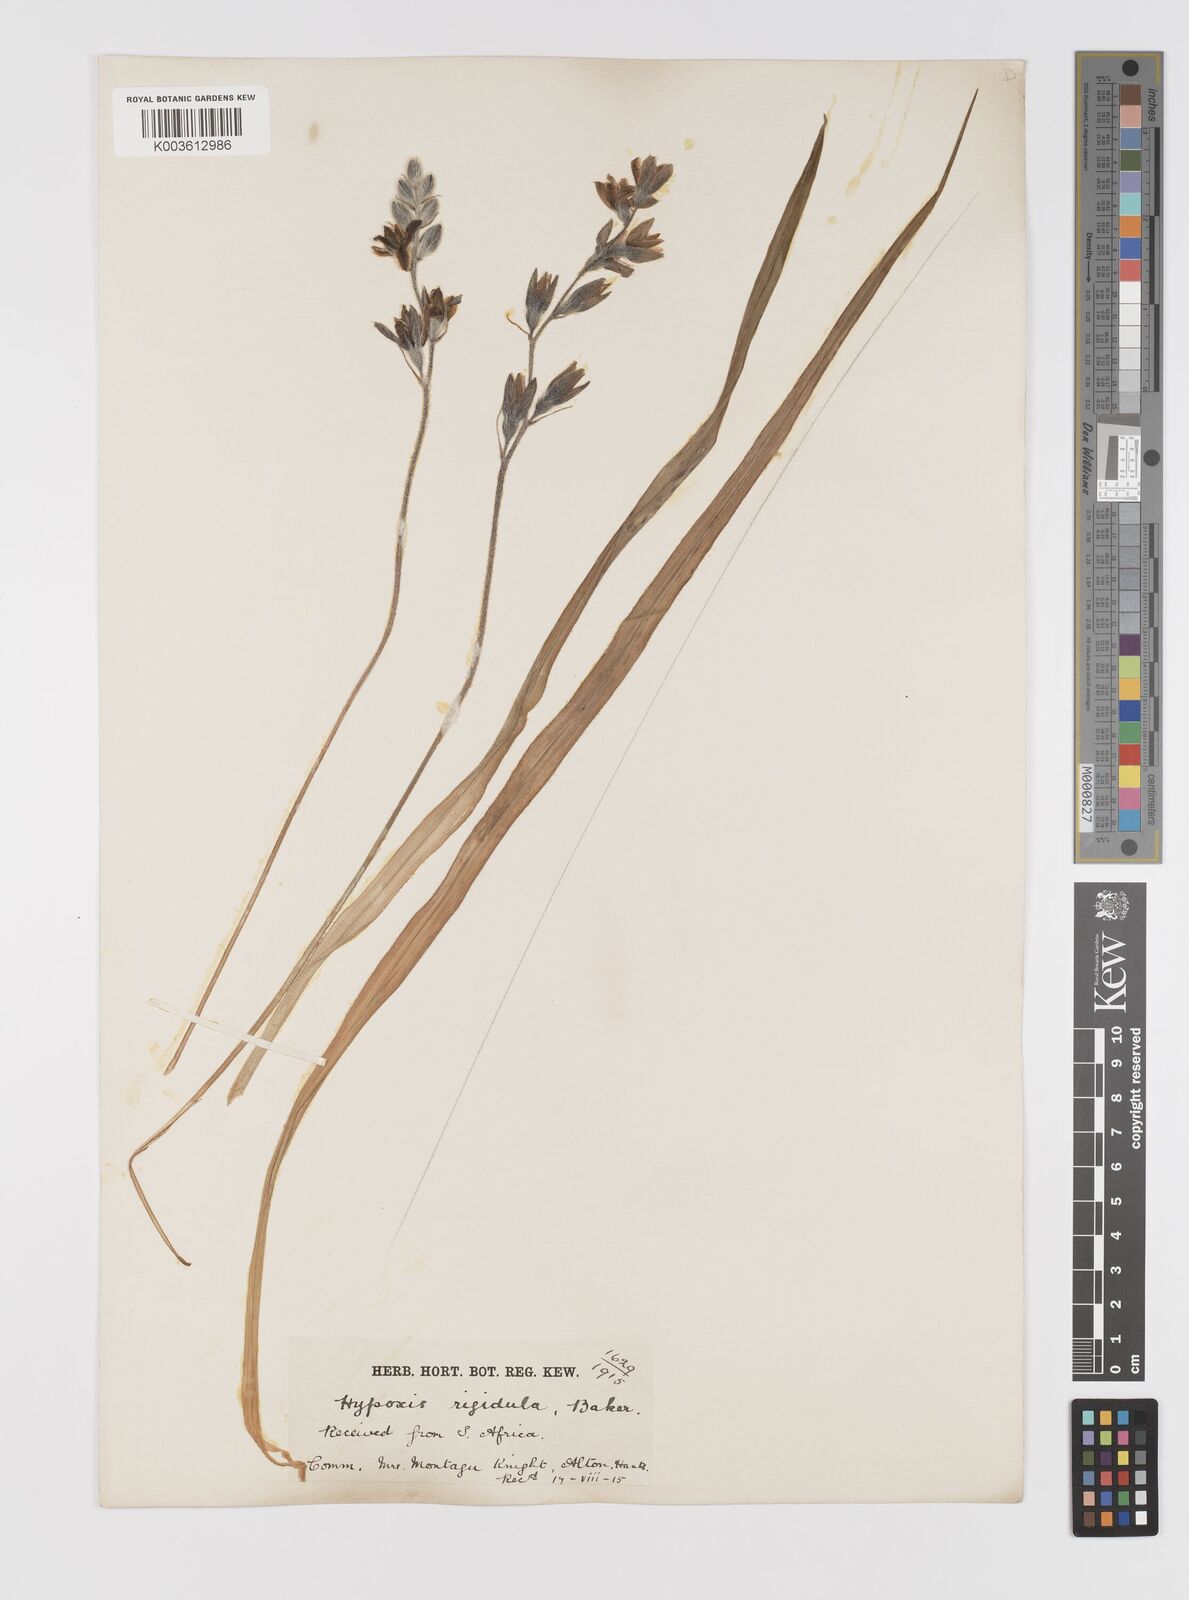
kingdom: Plantae
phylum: Tracheophyta
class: Liliopsida
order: Asparagales
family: Hypoxidaceae
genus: Hypoxis
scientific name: Hypoxis rigidula
